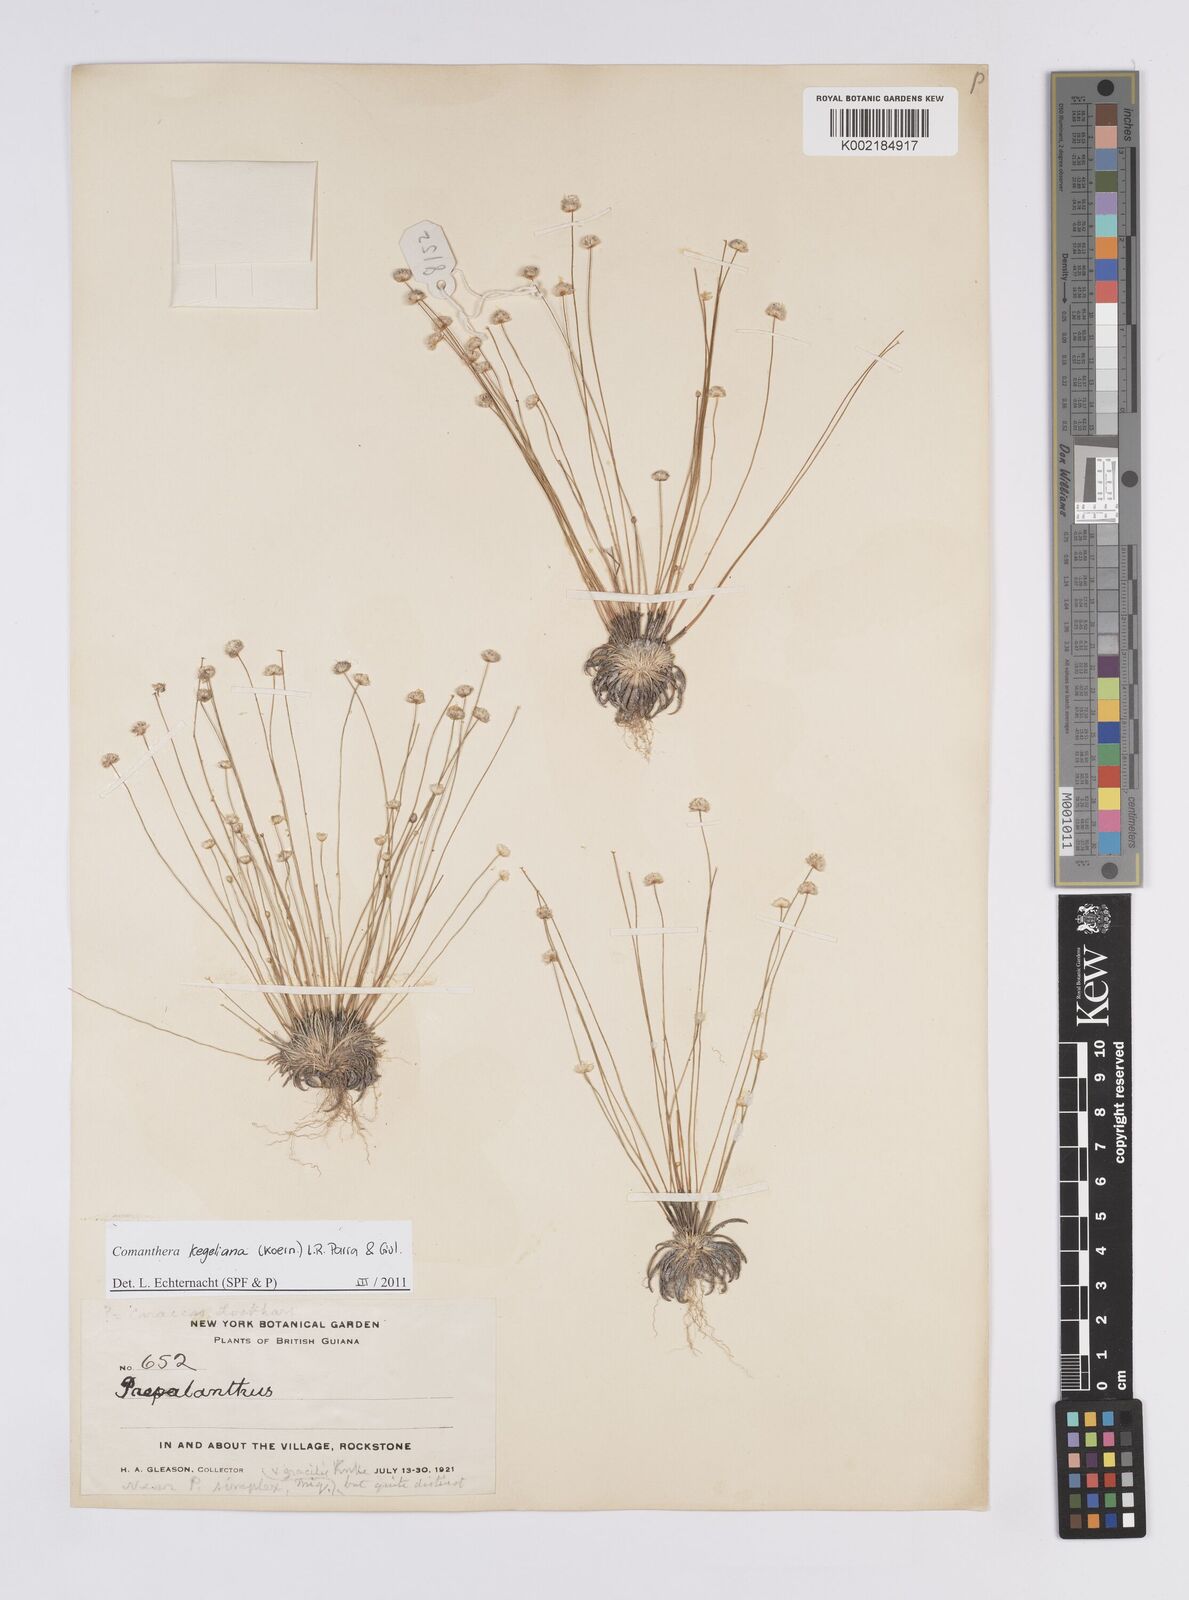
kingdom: Plantae
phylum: Tracheophyta
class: Liliopsida
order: Poales
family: Eriocaulaceae
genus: Comanthera
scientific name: Comanthera kegeliana
